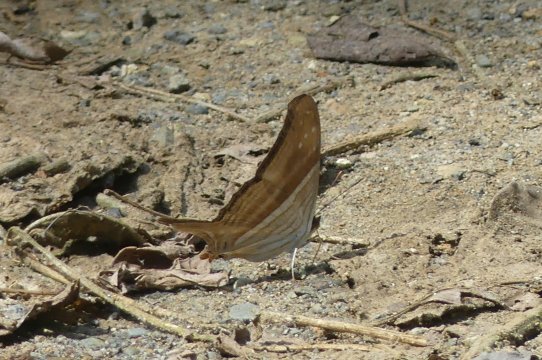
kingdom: Animalia
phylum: Arthropoda
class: Insecta
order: Lepidoptera
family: Nymphalidae
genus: Marpesia
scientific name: Marpesia chiron
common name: Many-banded Daggerwing
